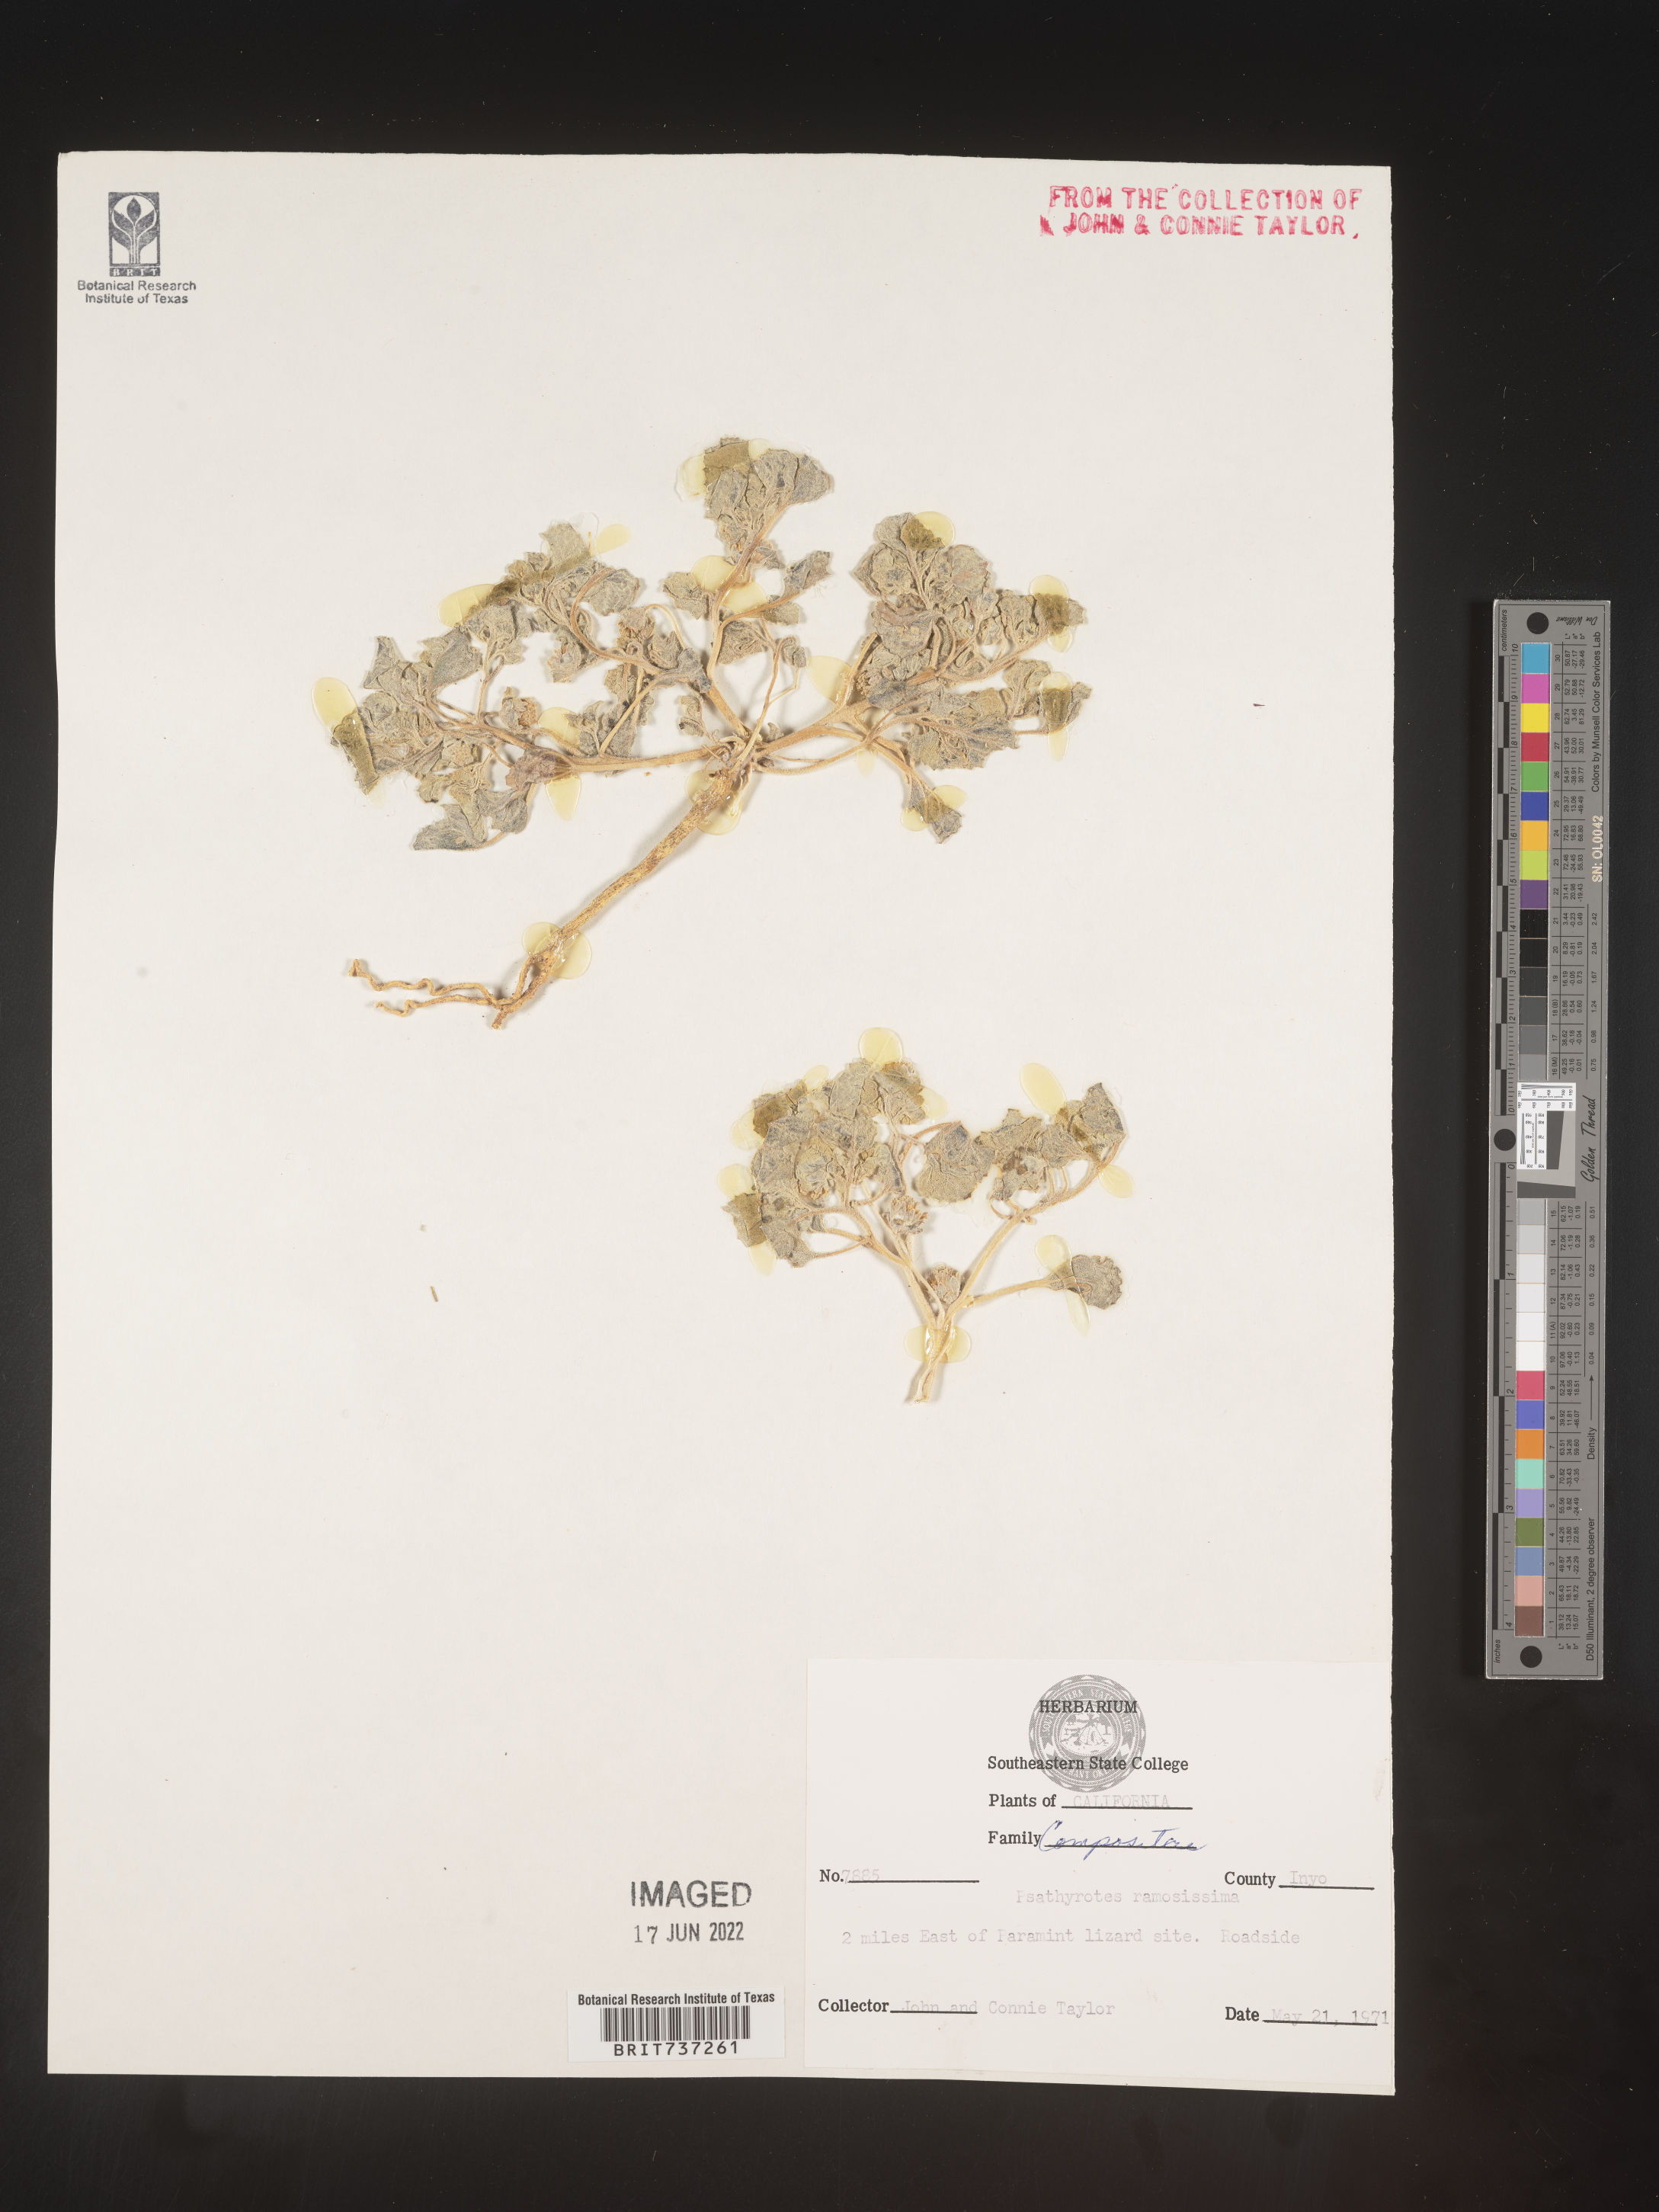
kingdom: Plantae
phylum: Tracheophyta
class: Magnoliopsida
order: Asterales
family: Asteraceae
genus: Psathyrotes
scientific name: Psathyrotes
